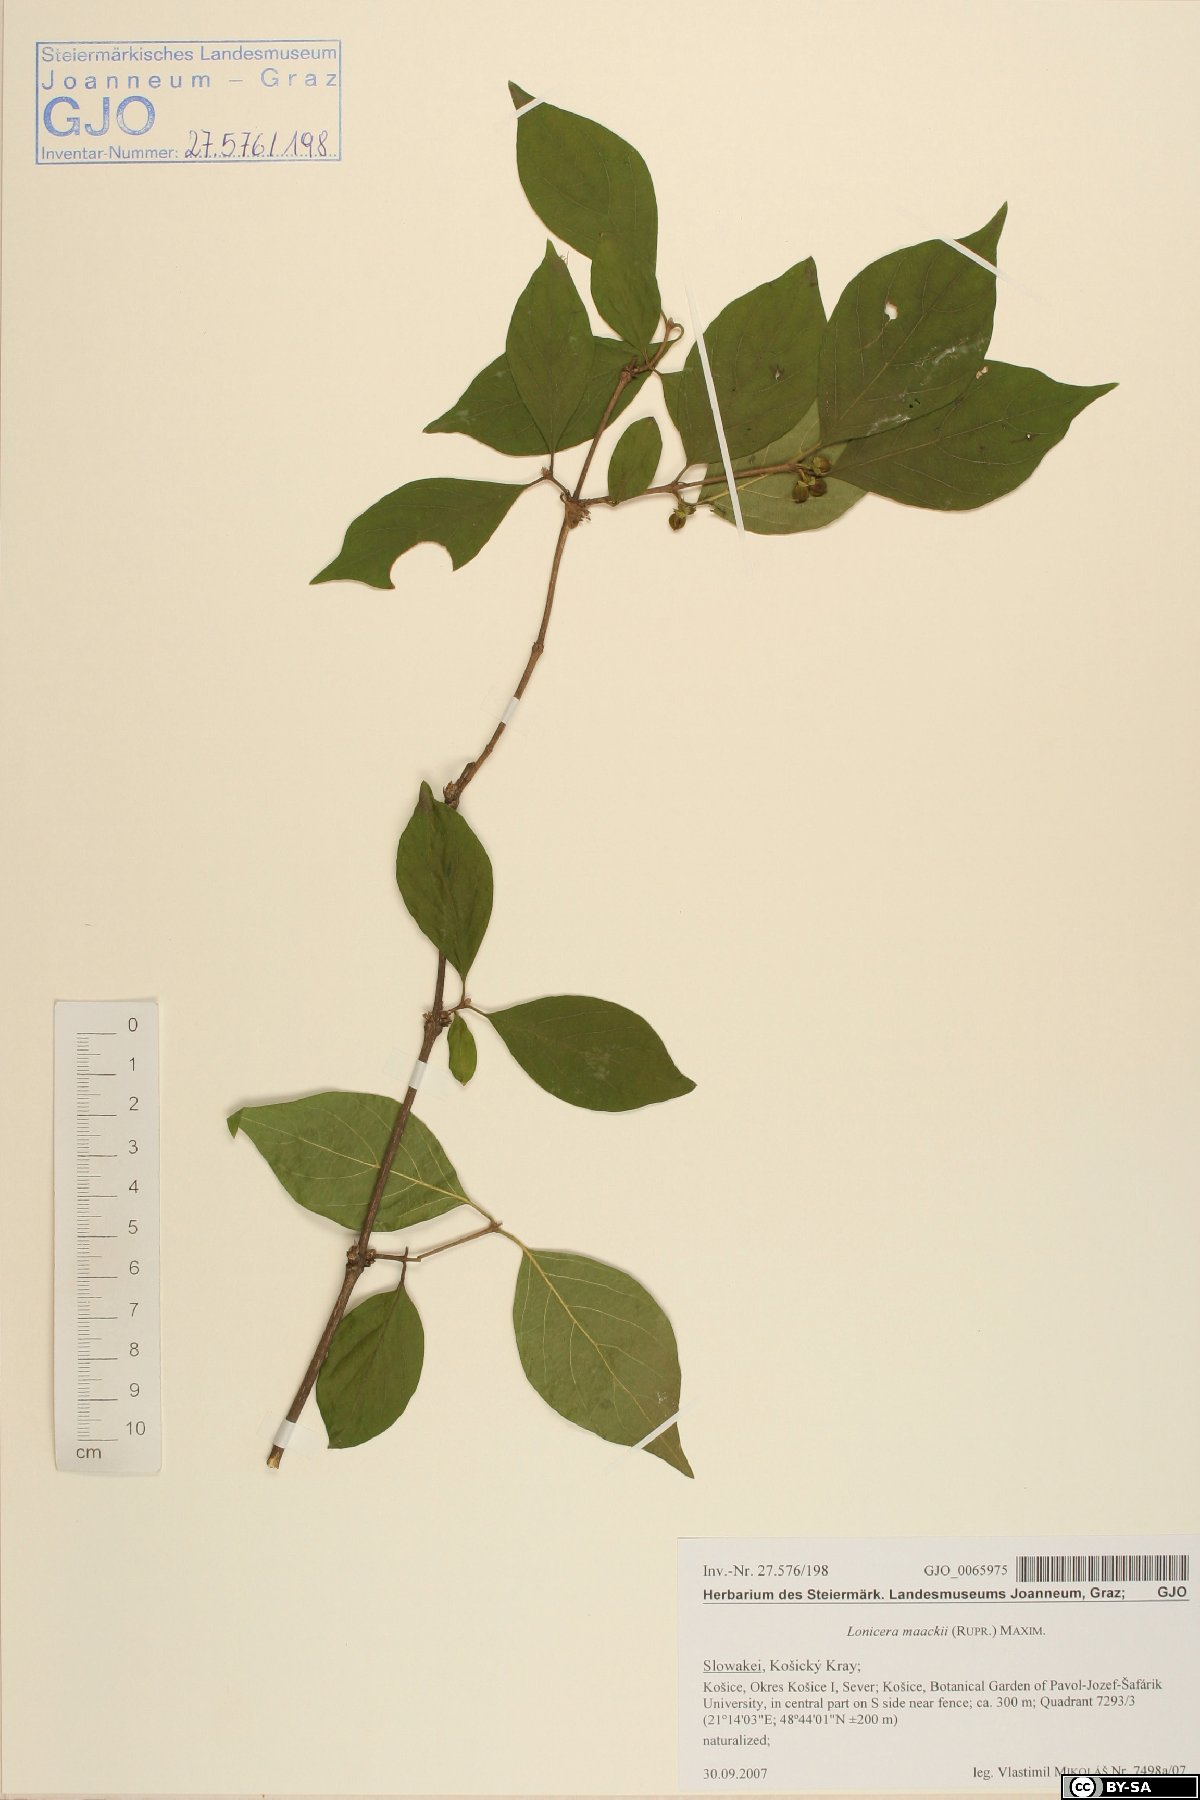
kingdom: Plantae
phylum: Tracheophyta
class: Magnoliopsida
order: Dipsacales
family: Caprifoliaceae
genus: Lonicera
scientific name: Lonicera maackii
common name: Amur honeysuckle
